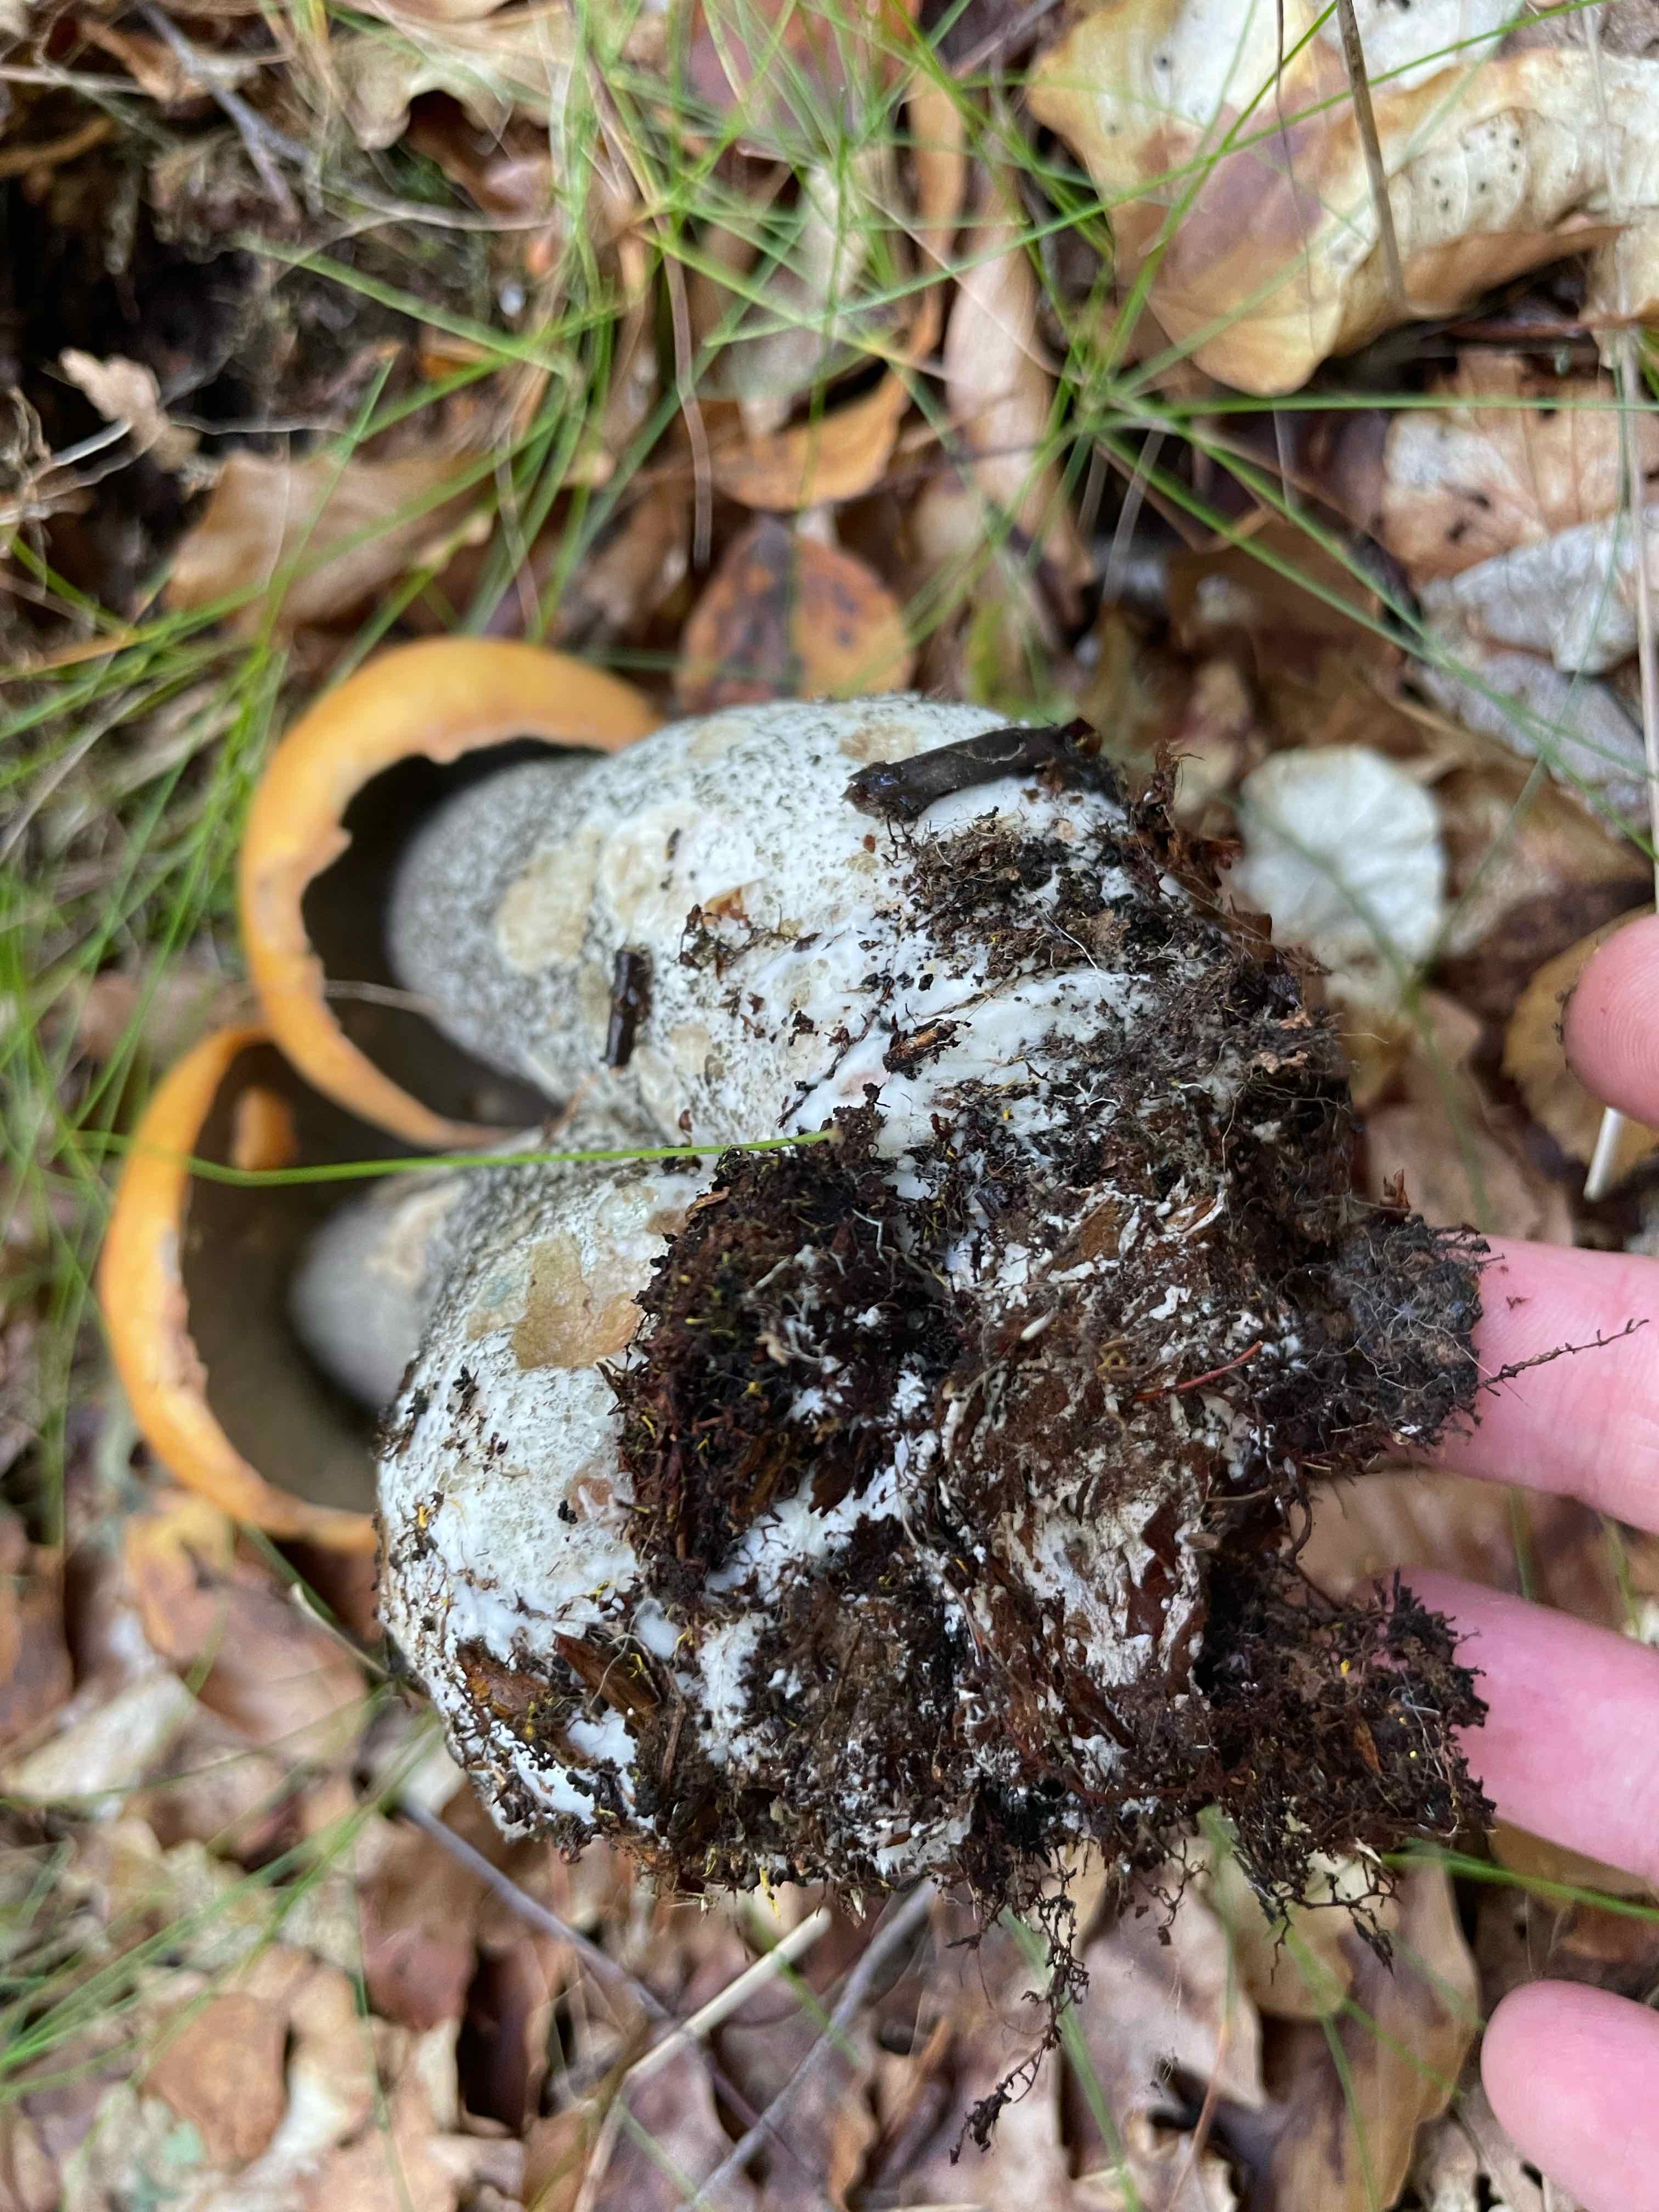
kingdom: Fungi
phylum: Basidiomycota
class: Agaricomycetes
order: Boletales
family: Boletaceae
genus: Leccinum
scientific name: Leccinum versipelle
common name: orange skælrørhat
